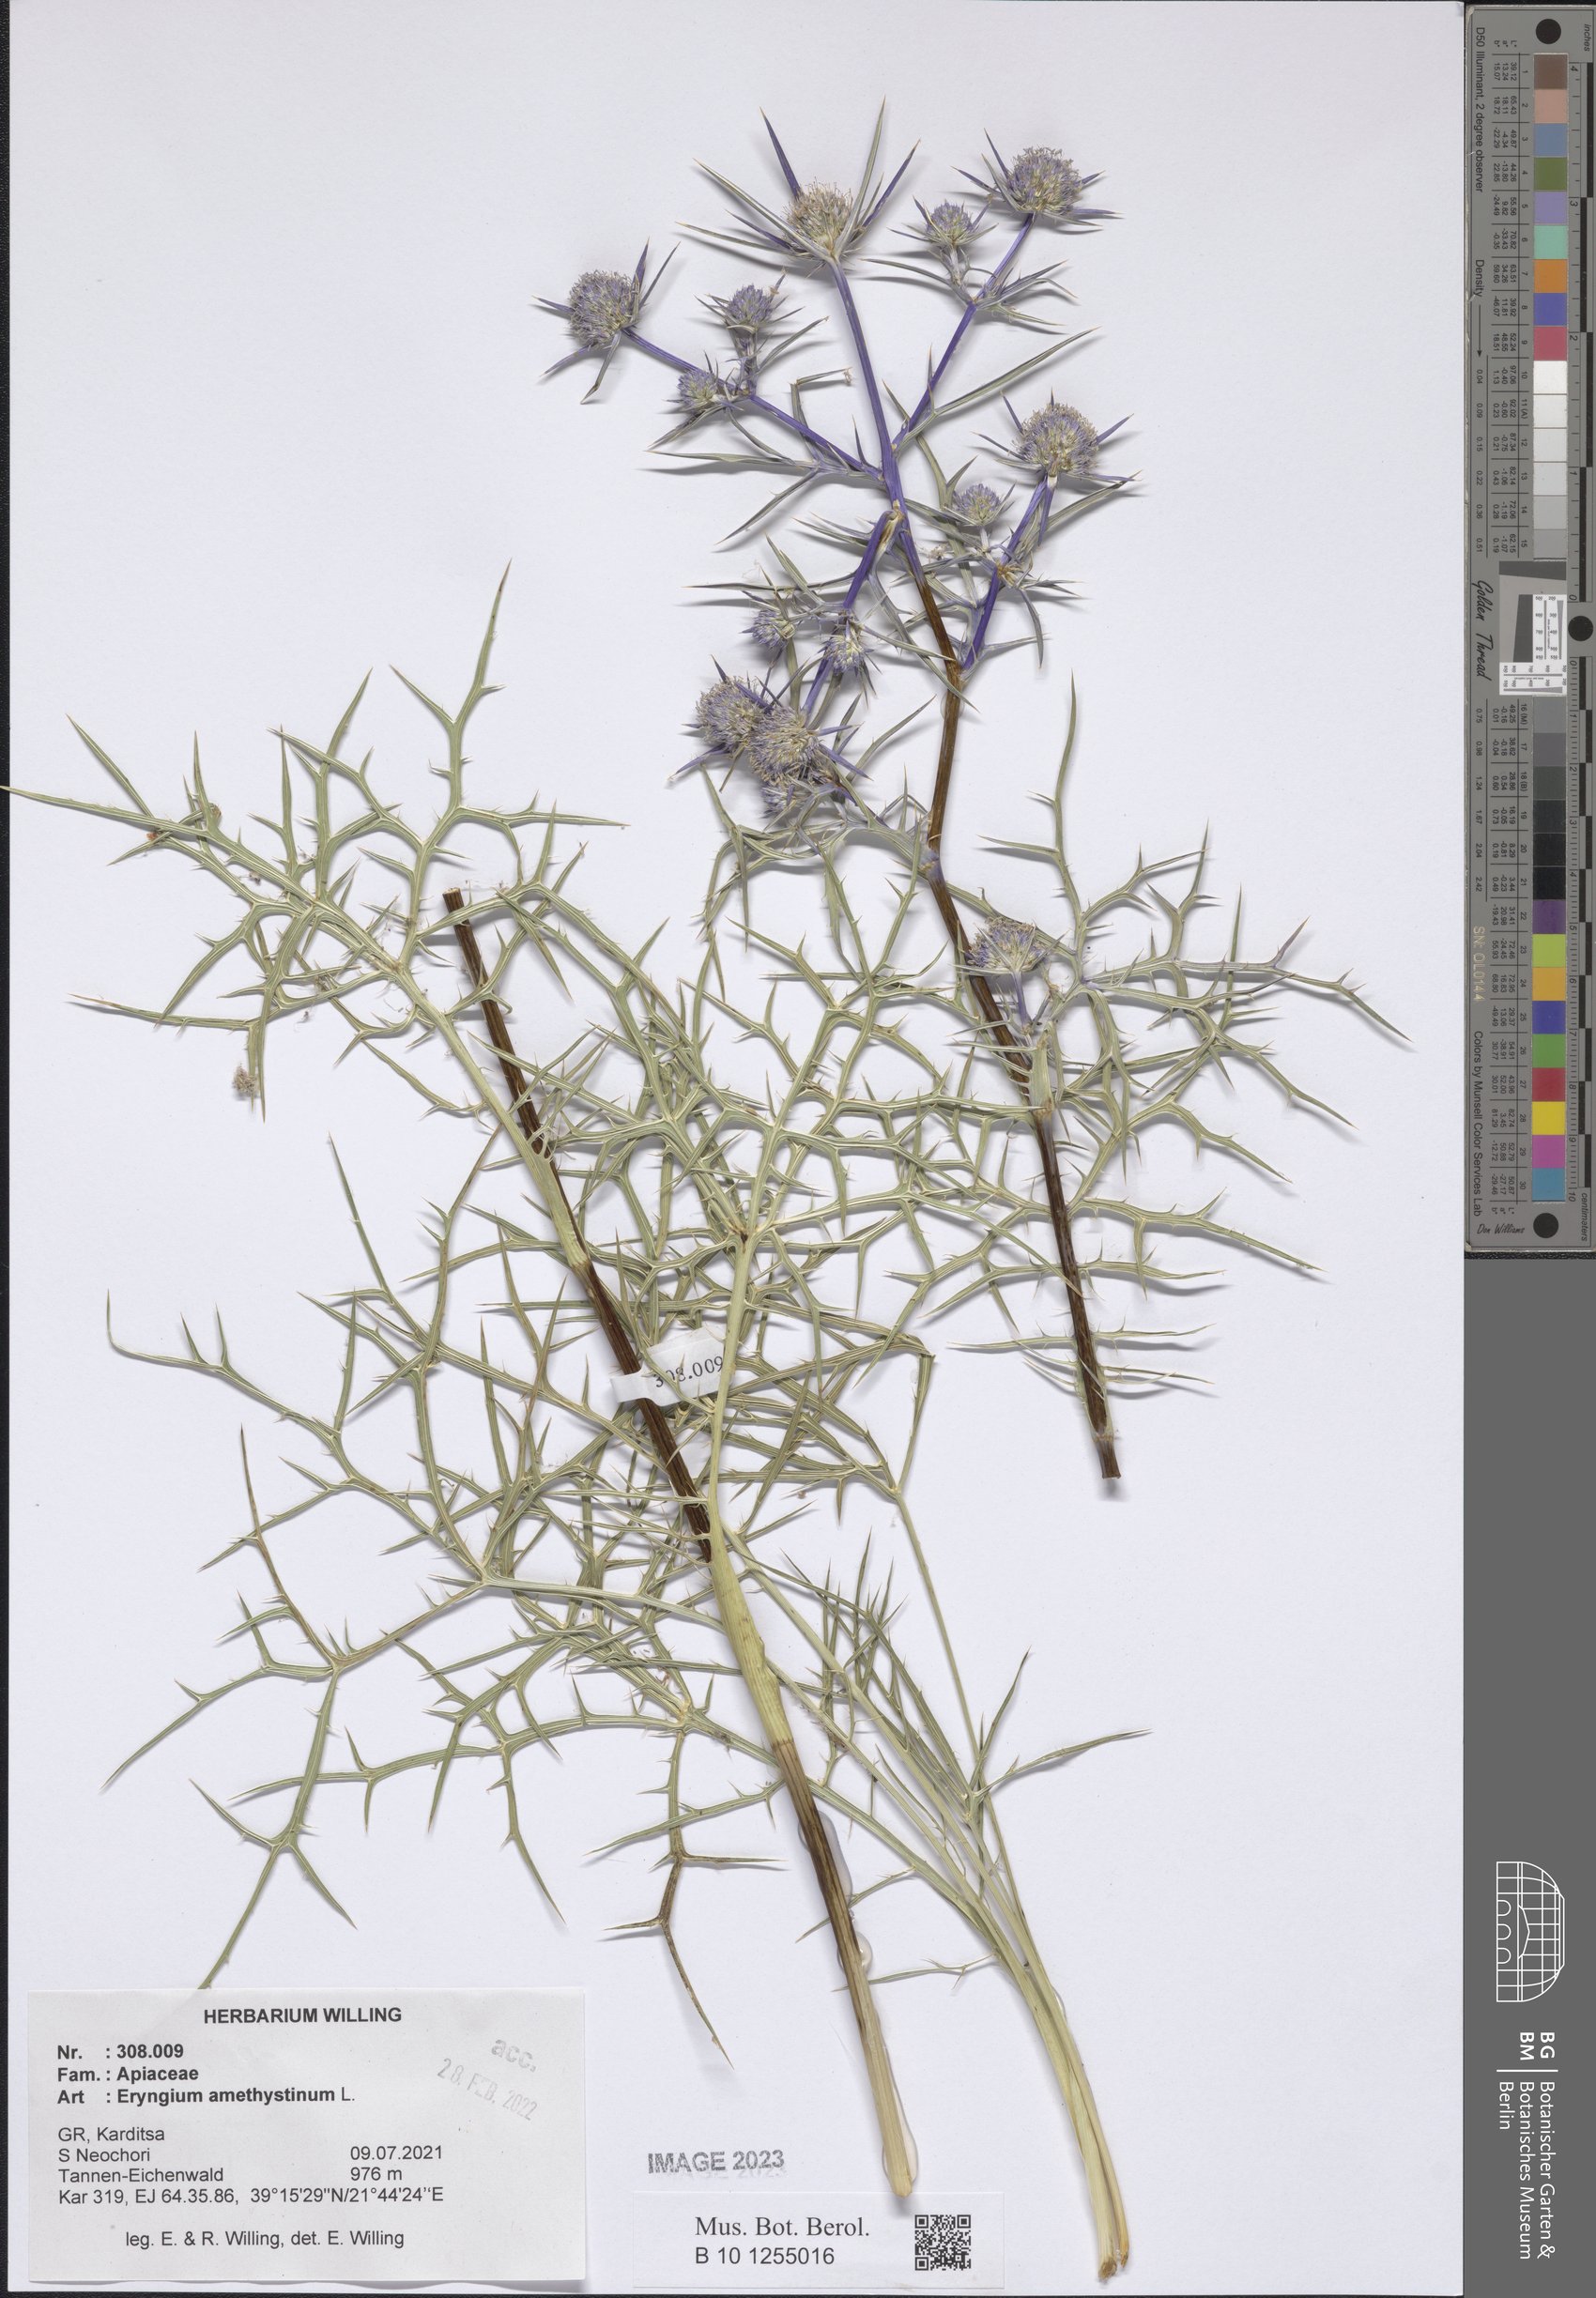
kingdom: Plantae
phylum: Tracheophyta
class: Magnoliopsida
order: Apiales
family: Apiaceae
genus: Eryngium
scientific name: Eryngium amethystinum
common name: Amethyst eryngo
